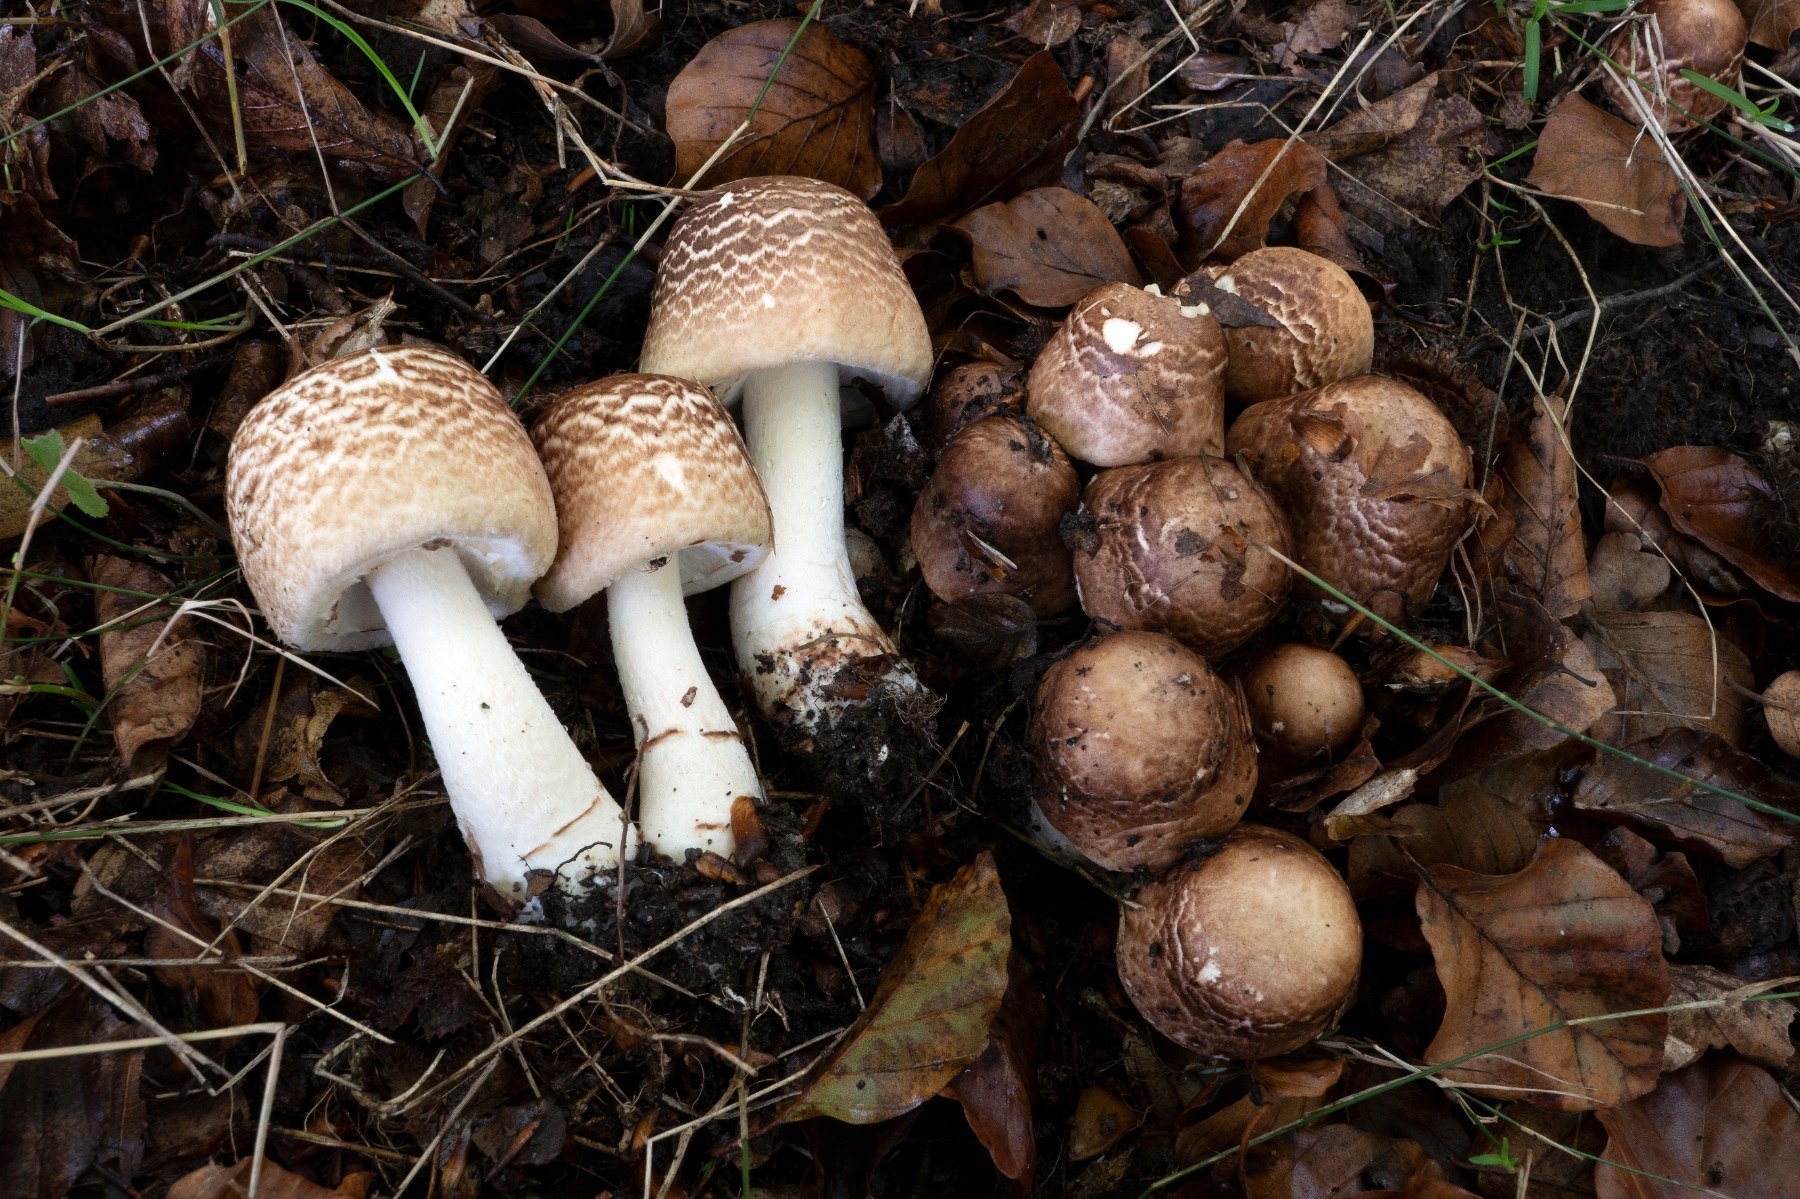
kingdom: Fungi
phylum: Basidiomycota
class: Agaricomycetes
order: Agaricales
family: Agaricaceae
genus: Agaricus
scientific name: Agaricus impudicus
